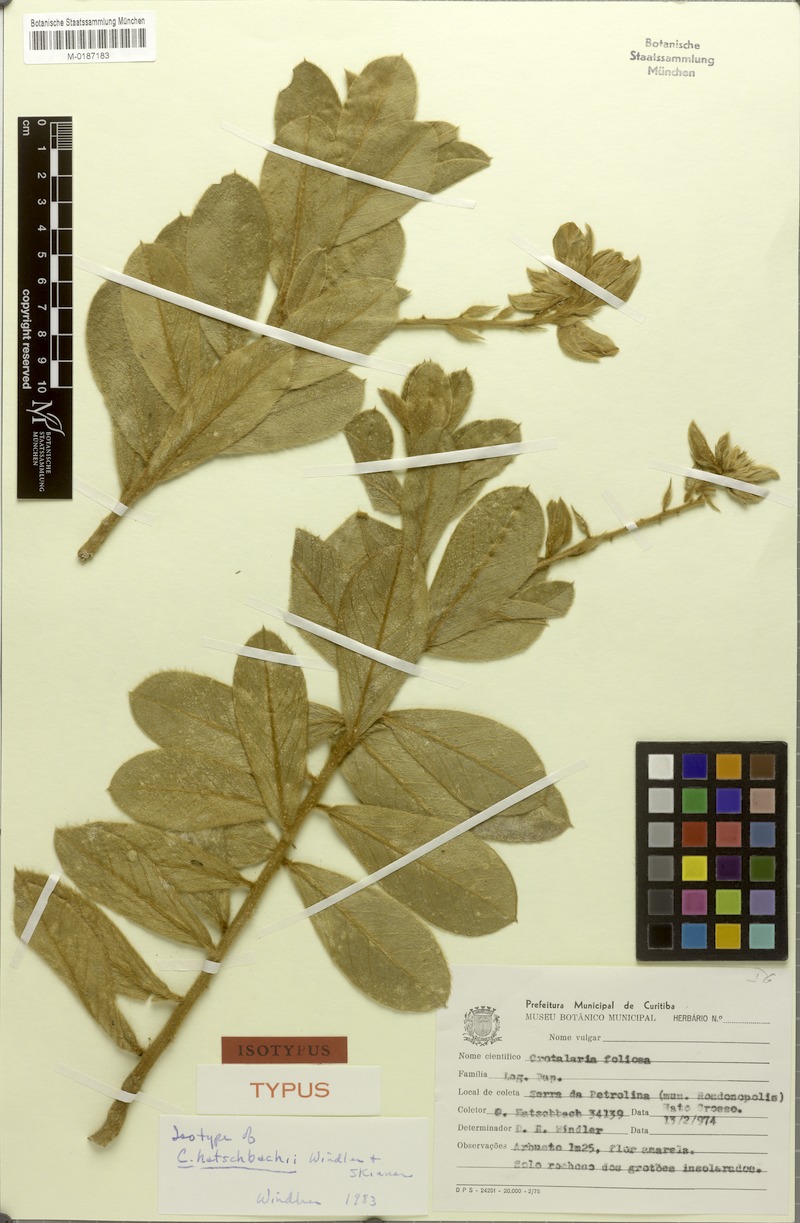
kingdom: Plantae
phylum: Tracheophyta
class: Magnoliopsida
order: Fabales
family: Fabaceae
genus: Crotalaria
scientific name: Crotalaria martiana
